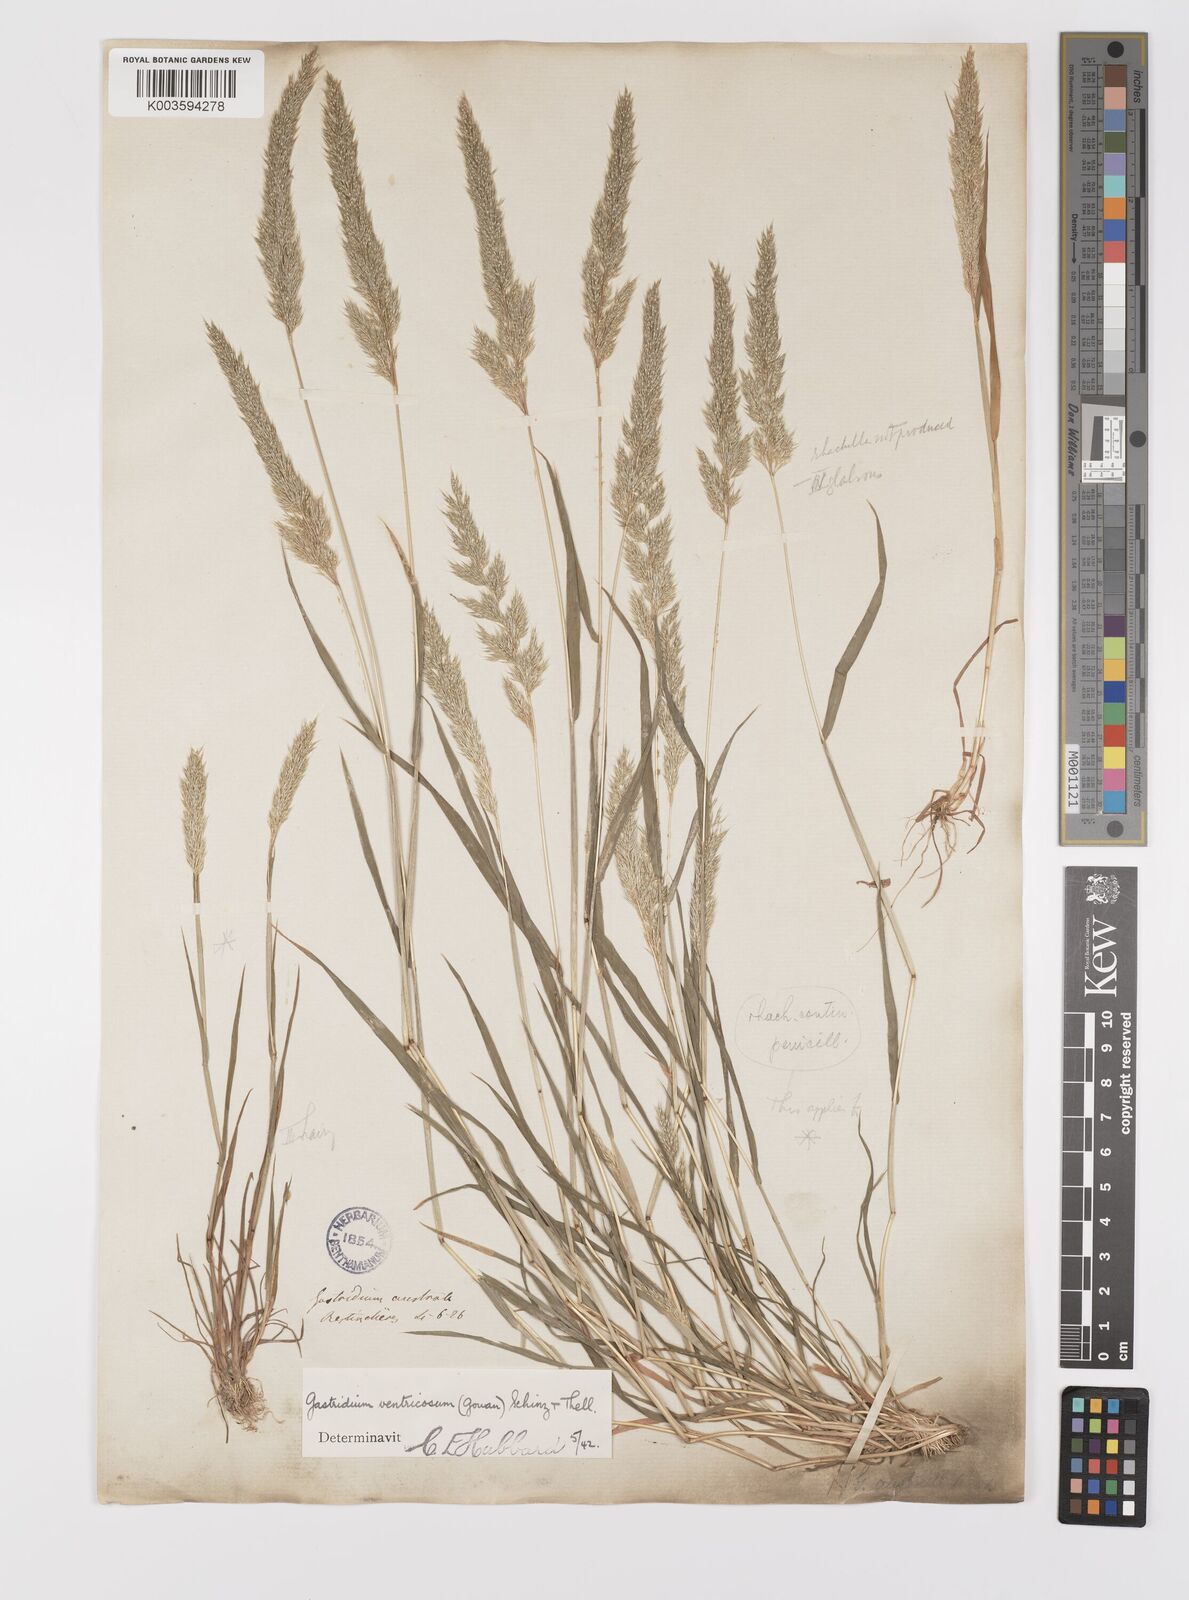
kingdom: Plantae
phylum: Tracheophyta
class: Liliopsida
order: Poales
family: Poaceae
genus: Gastridium
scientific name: Gastridium ventricosum
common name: Nit-grass
